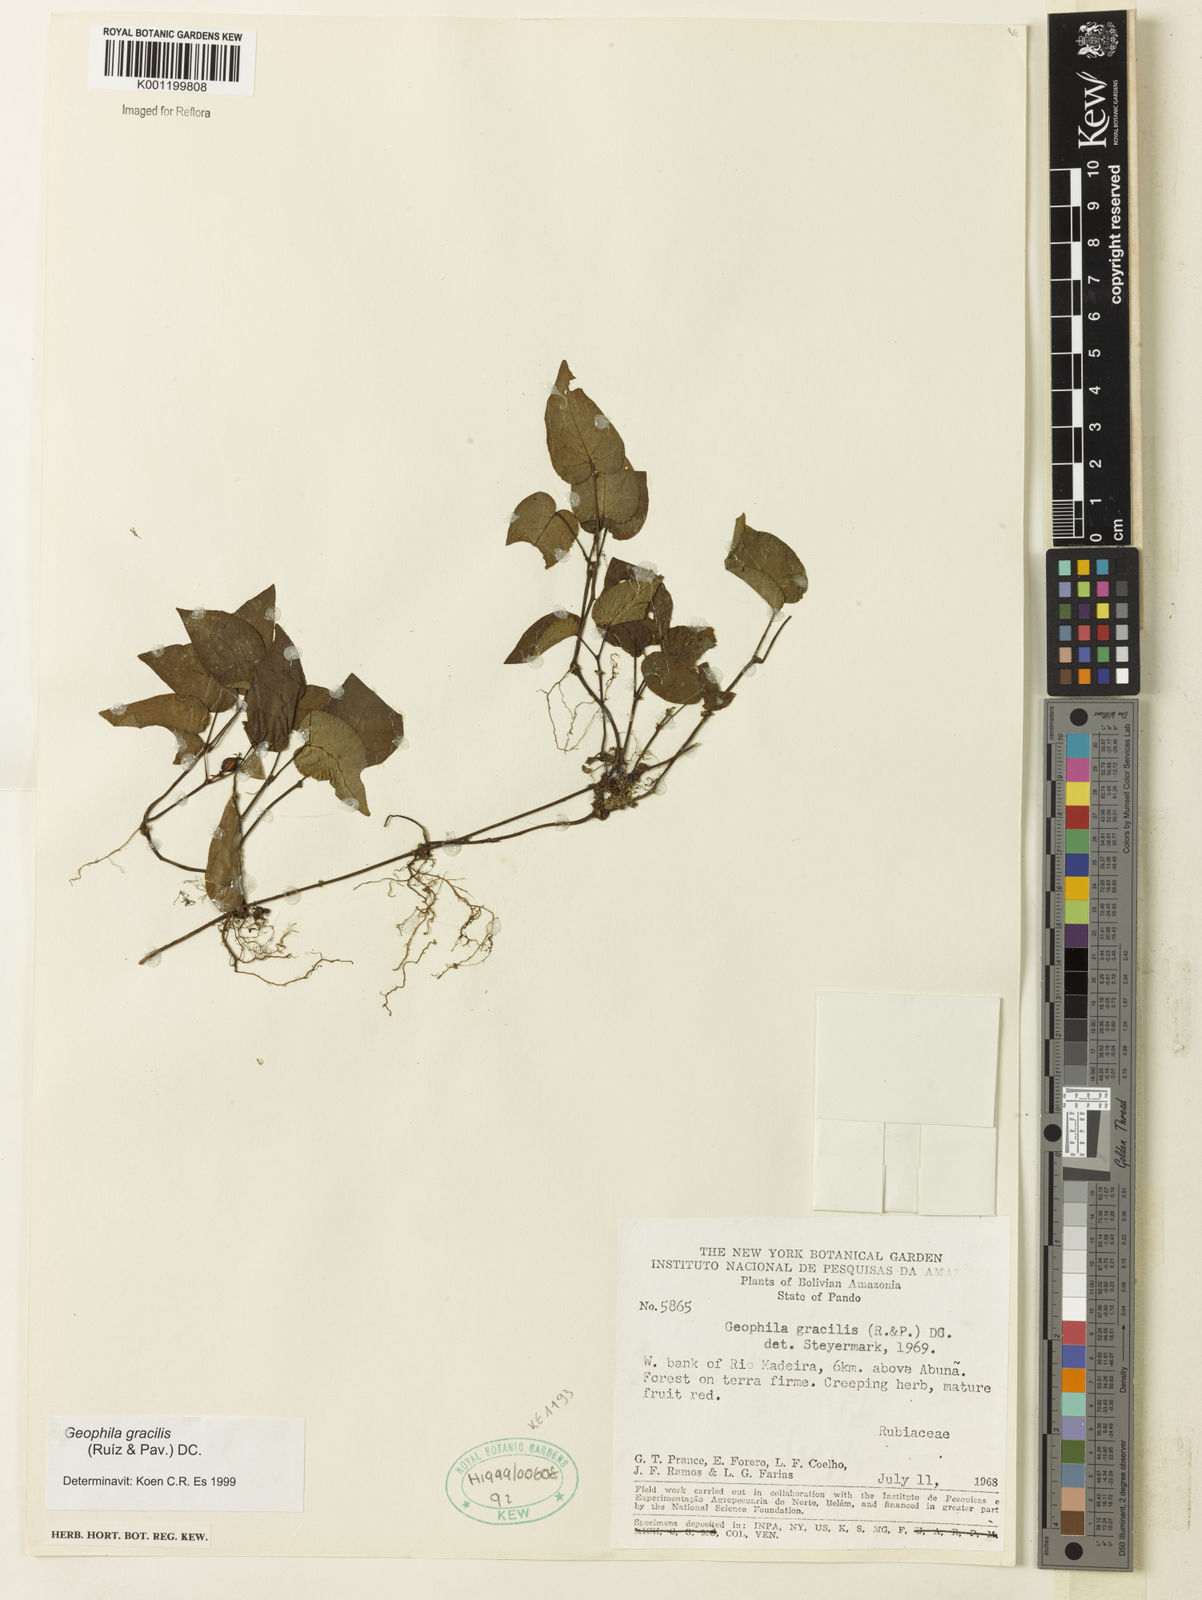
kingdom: Plantae
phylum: Tracheophyta
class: Magnoliopsida
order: Gentianales
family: Rubiaceae
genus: Geophila
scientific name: Geophila gracilis
